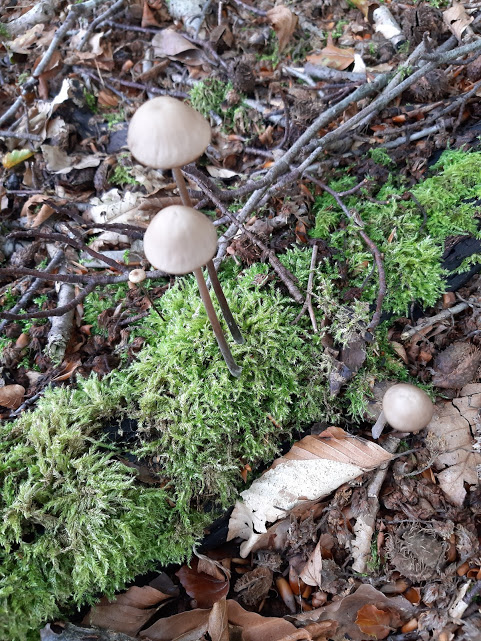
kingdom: Fungi
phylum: Basidiomycota
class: Agaricomycetes
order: Agaricales
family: Omphalotaceae
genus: Mycetinis
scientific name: Mycetinis alliaceus
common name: stor løghat
